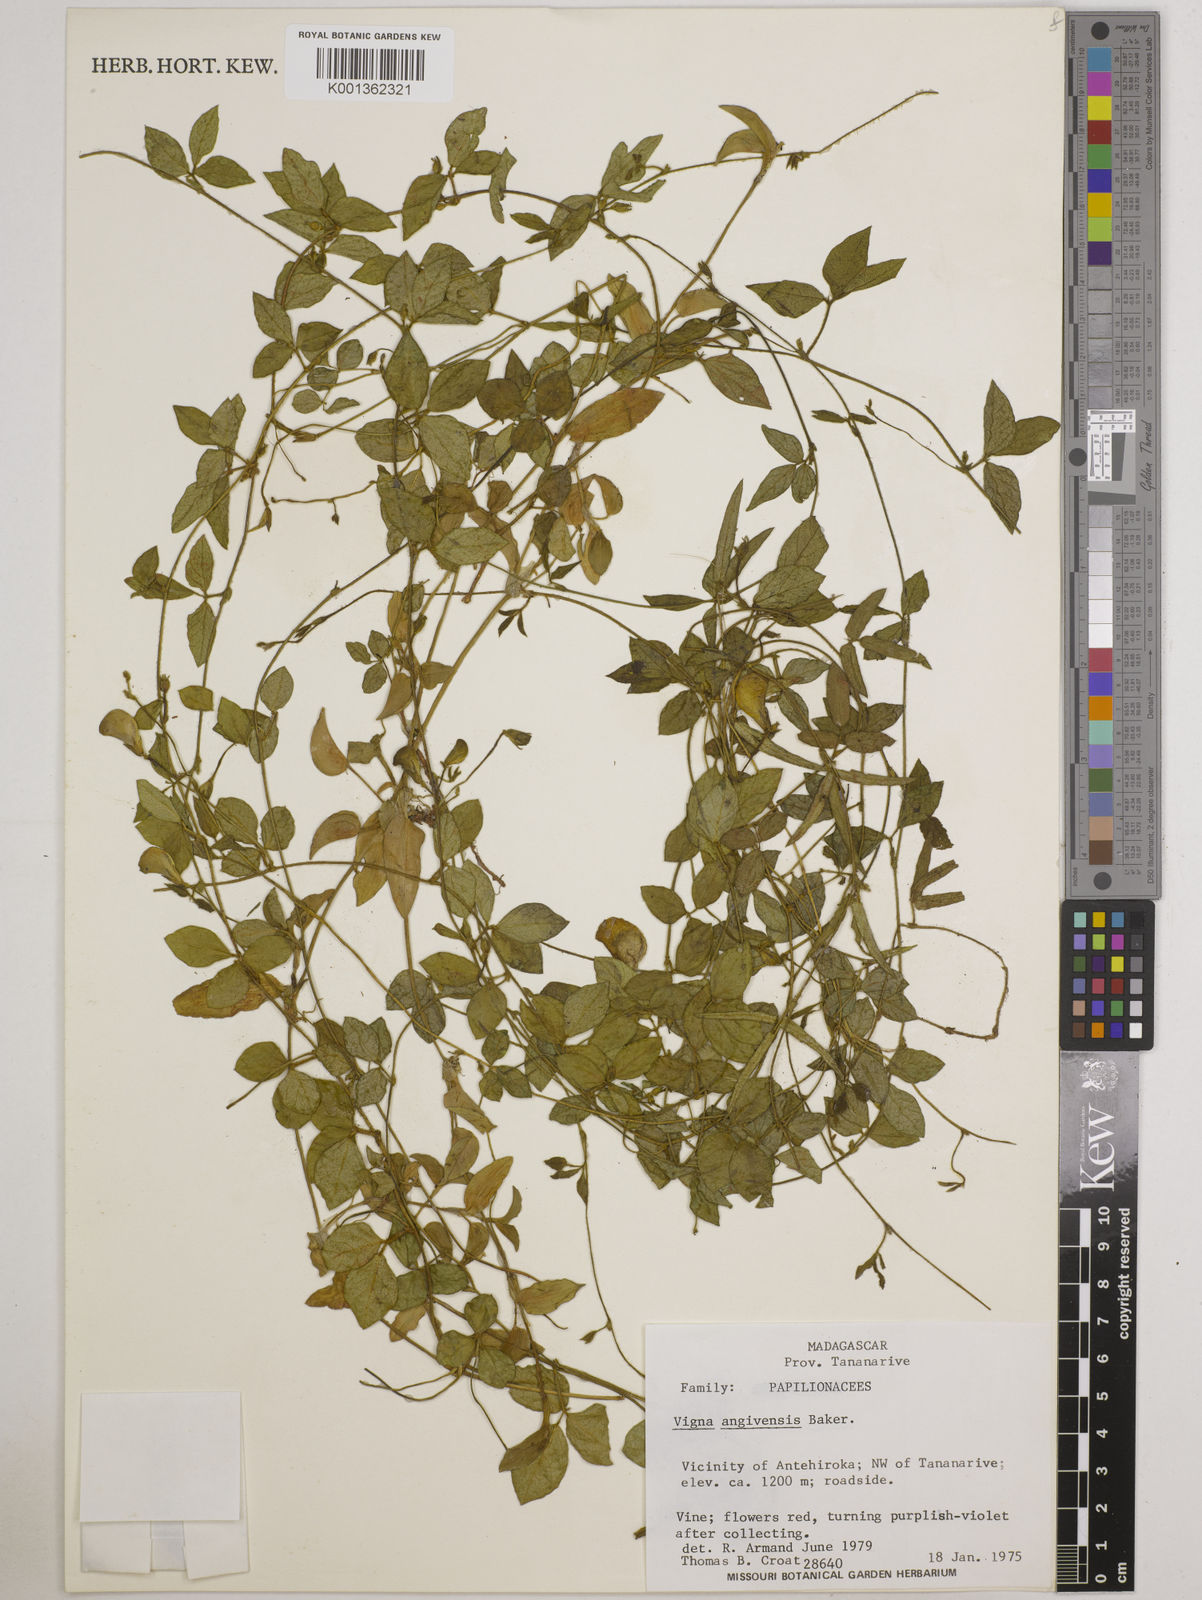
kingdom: Plantae
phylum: Tracheophyta
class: Magnoliopsida
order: Fabales
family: Fabaceae
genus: Vigna
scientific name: Vigna angivensis
